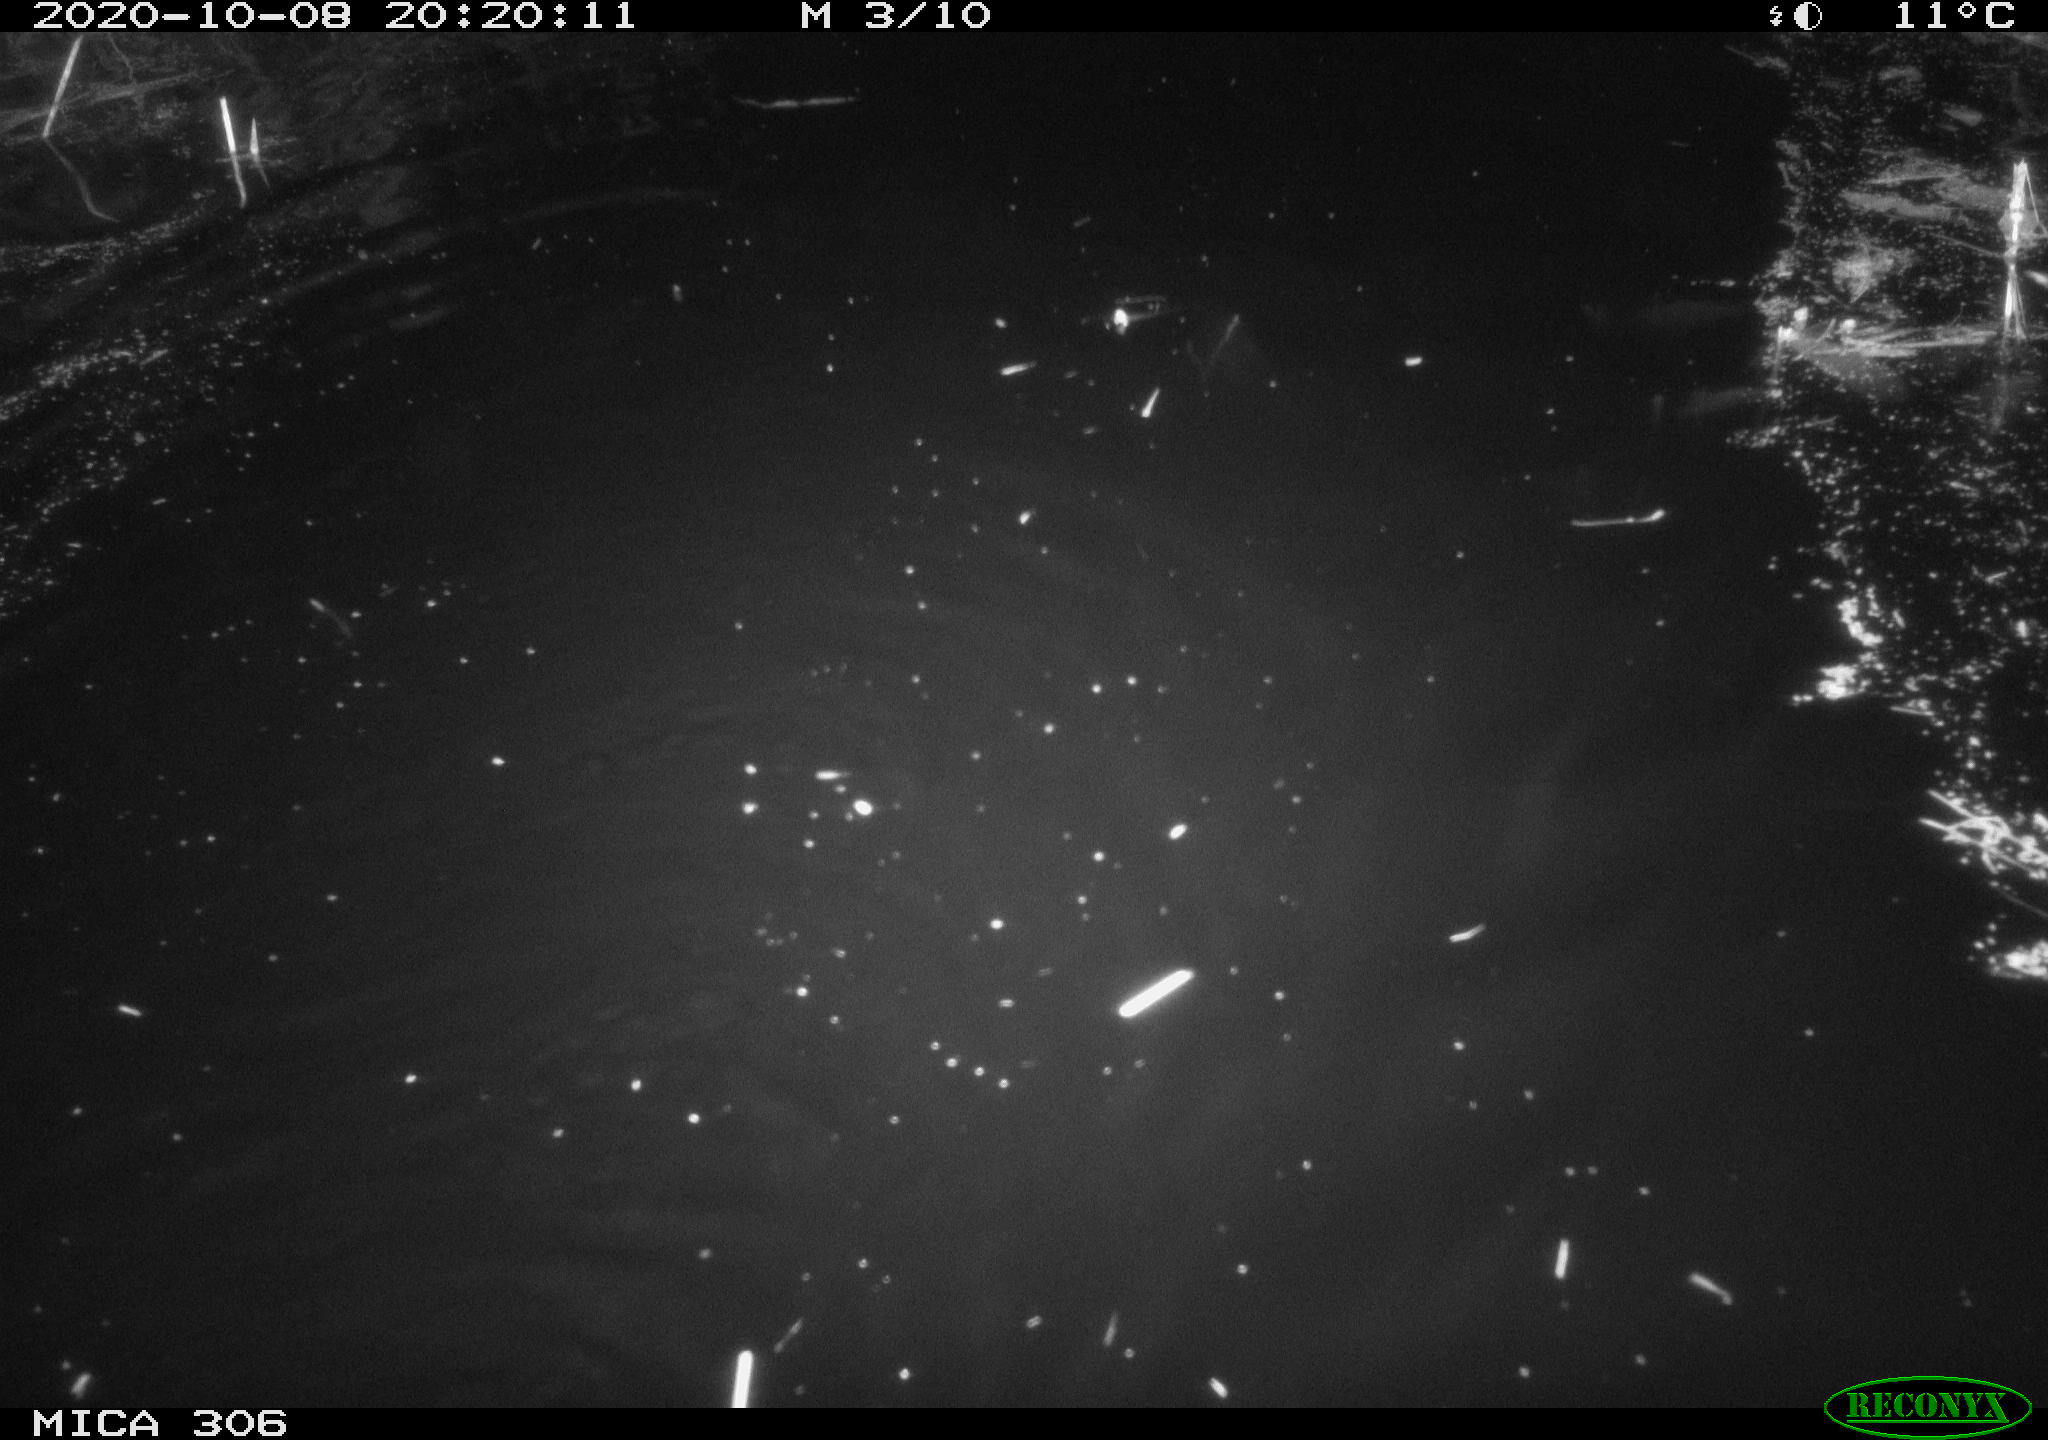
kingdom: Animalia
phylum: Chordata
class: Mammalia
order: Rodentia
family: Cricetidae
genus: Ondatra
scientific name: Ondatra zibethicus
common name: Muskrat
